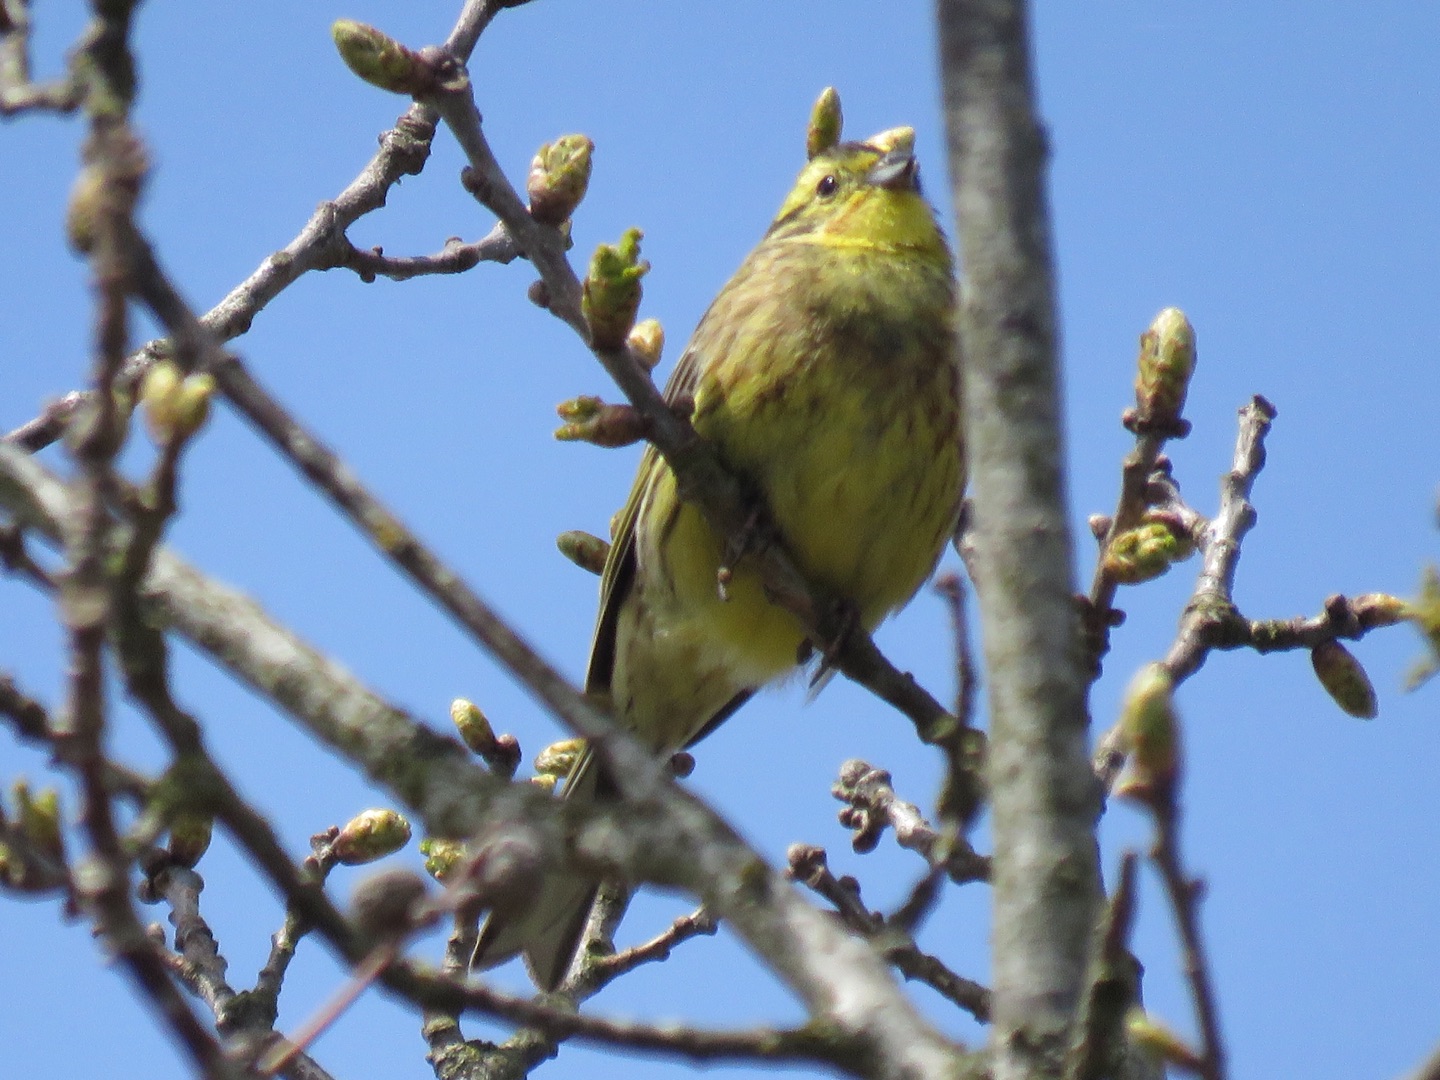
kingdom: Animalia
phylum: Chordata
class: Aves
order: Passeriformes
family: Emberizidae
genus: Emberiza
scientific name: Emberiza citrinella
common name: Gulspurv
